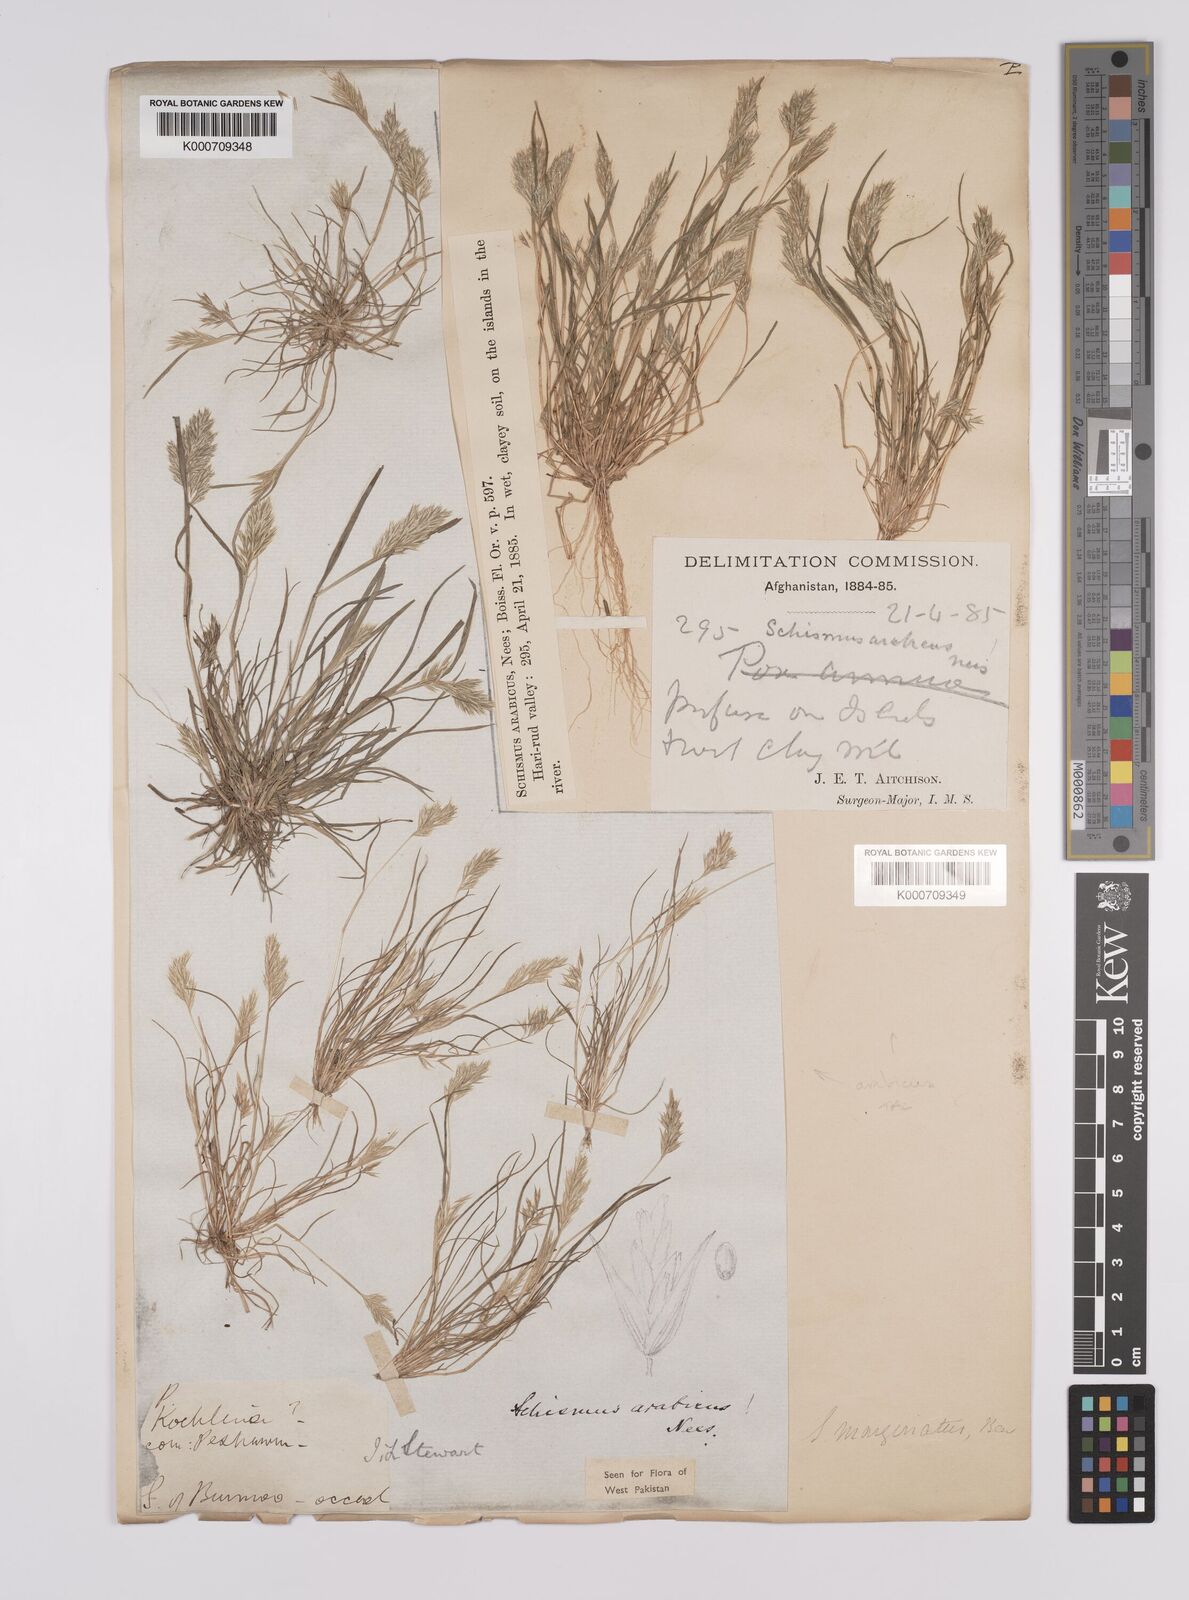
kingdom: Plantae
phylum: Tracheophyta
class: Liliopsida
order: Poales
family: Poaceae
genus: Schismus
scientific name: Schismus arabicus
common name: Arabian schismus
